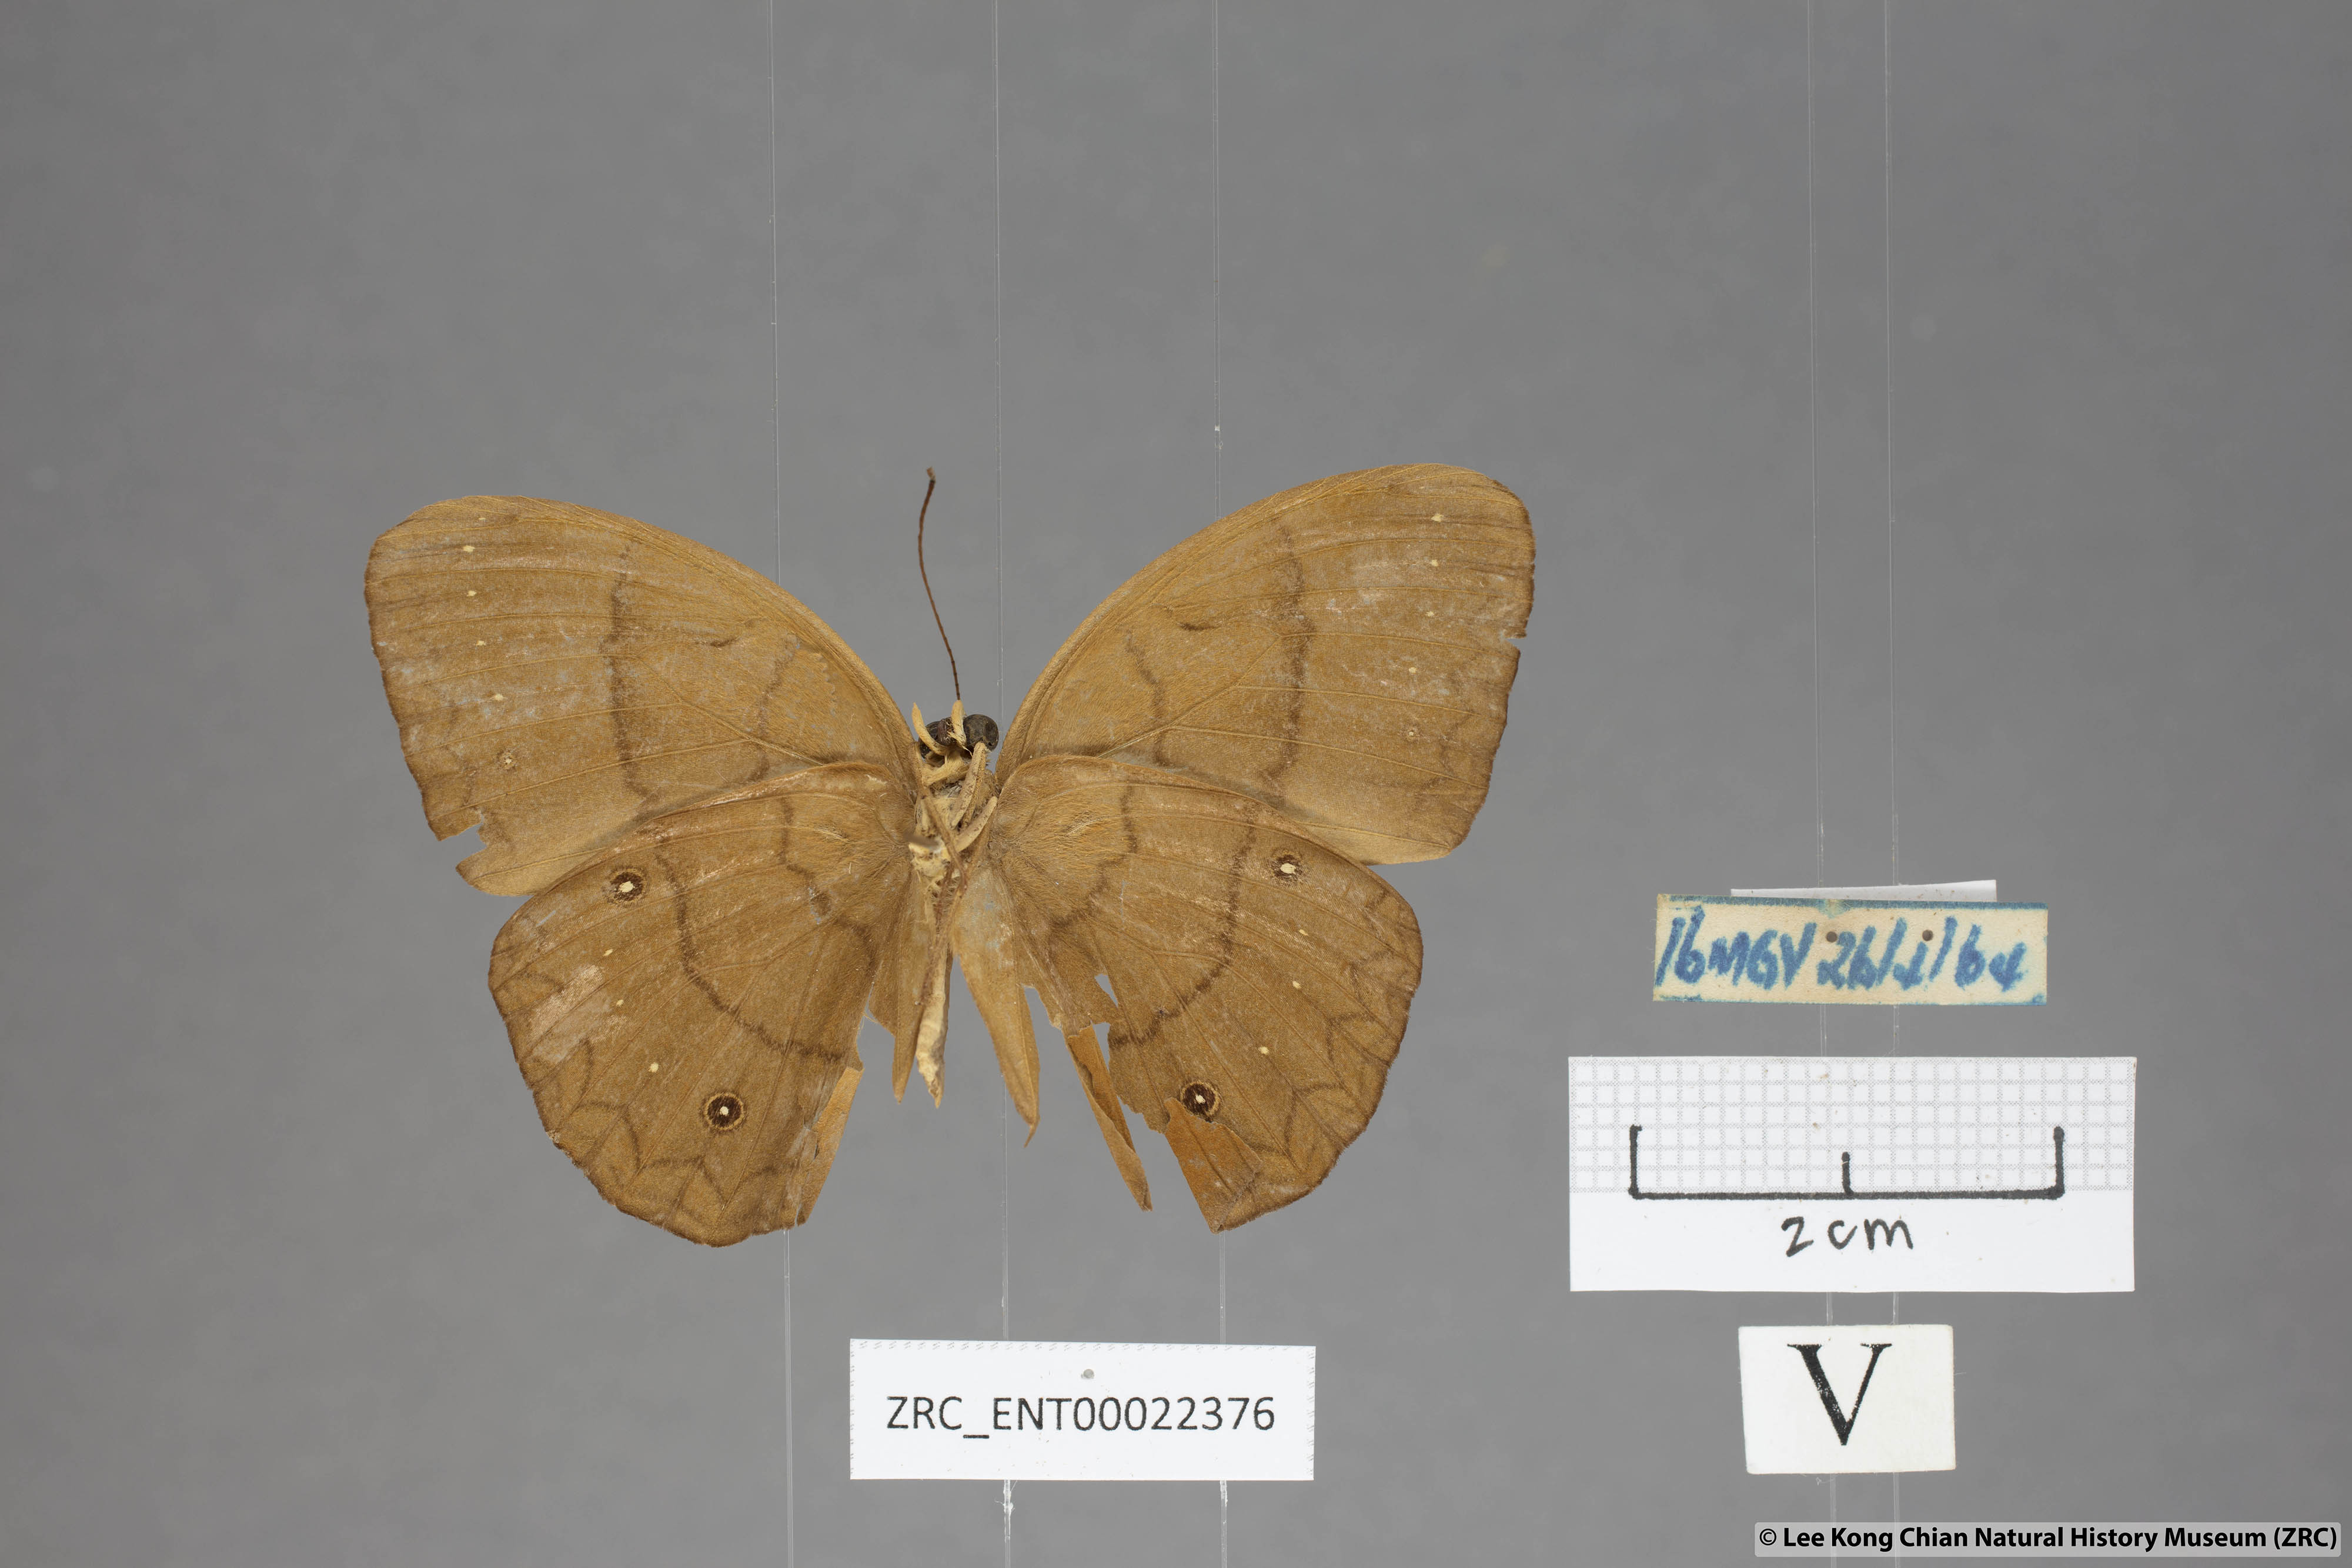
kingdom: Animalia
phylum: Arthropoda
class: Insecta
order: Lepidoptera
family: Nymphalidae
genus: Faunis
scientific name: Faunis gracilis
